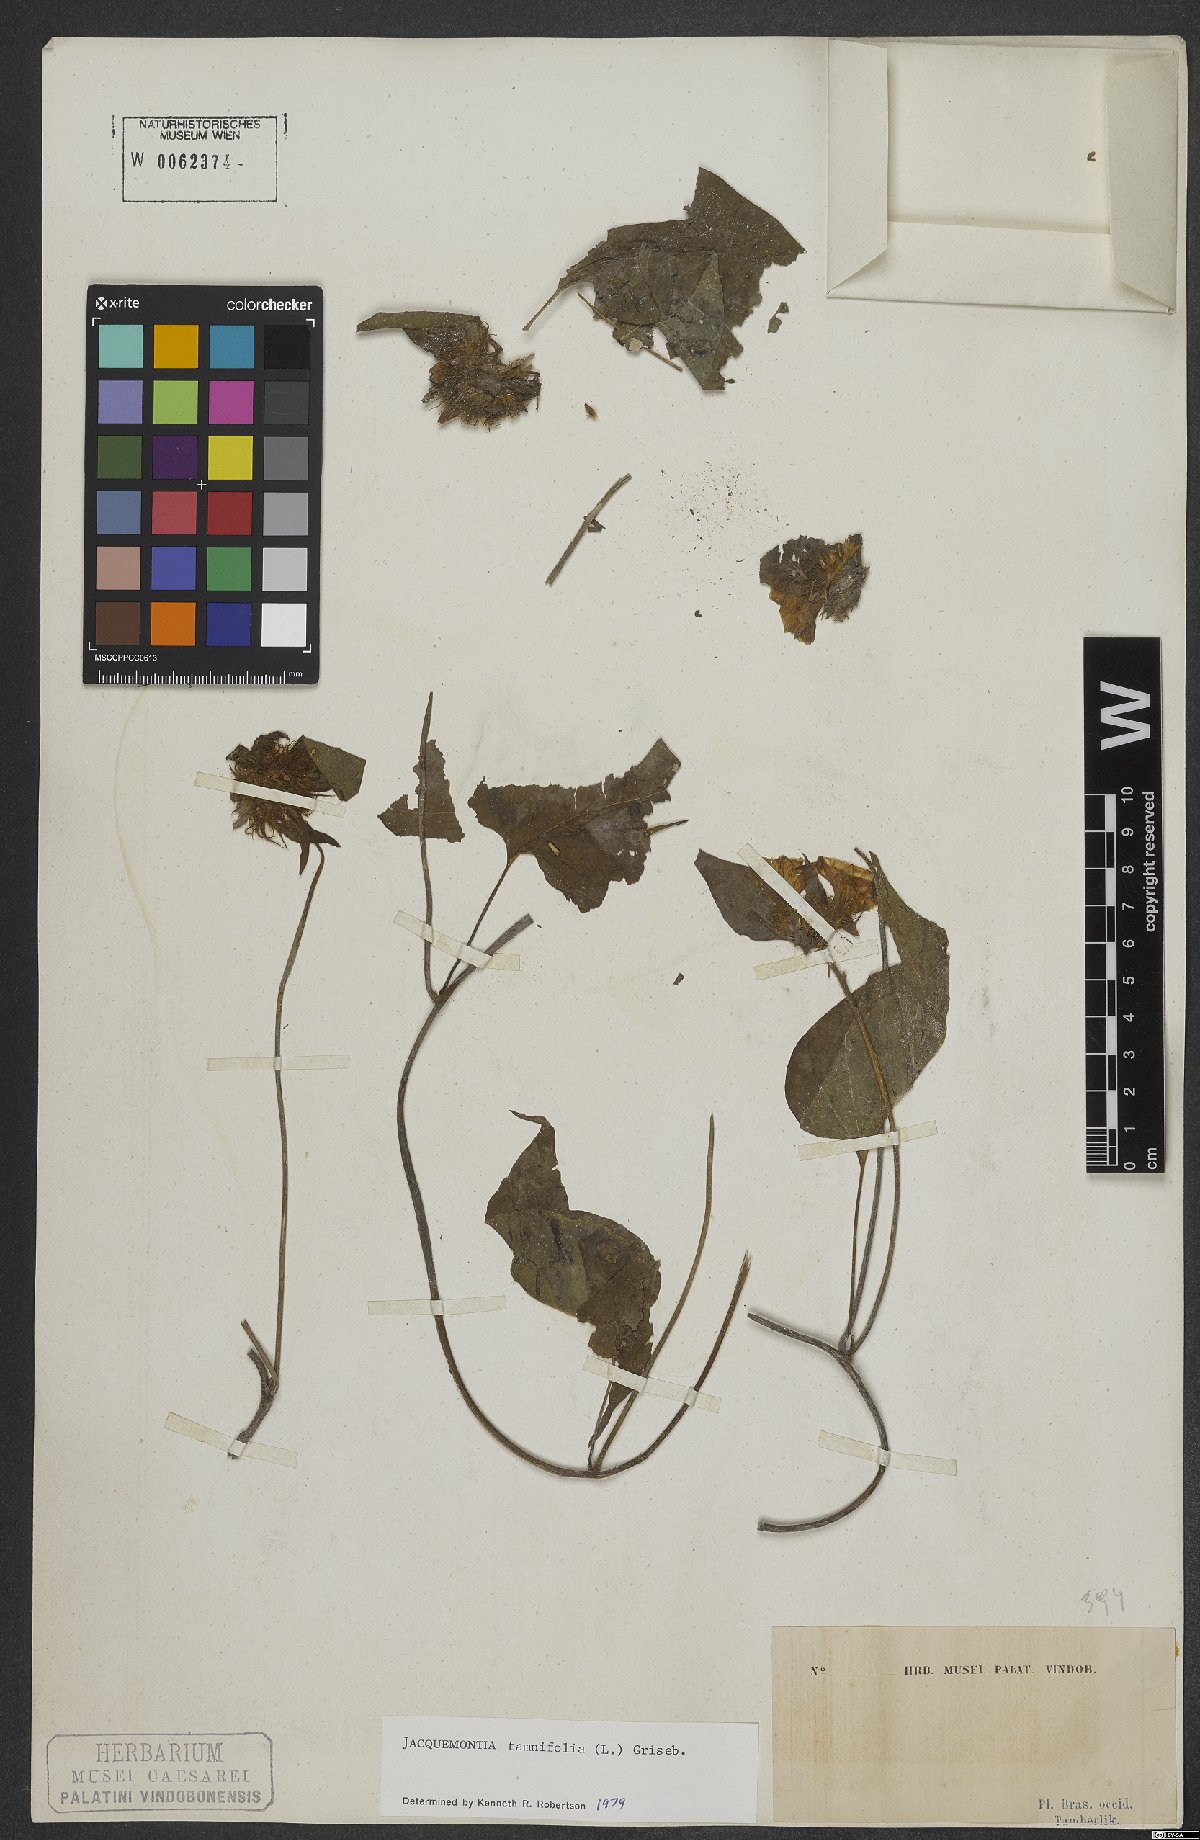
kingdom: Plantae
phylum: Tracheophyta
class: Magnoliopsida
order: Solanales
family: Convolvulaceae
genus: Jacquemontia
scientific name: Jacquemontia tamnifolia
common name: Hairy clustervine
